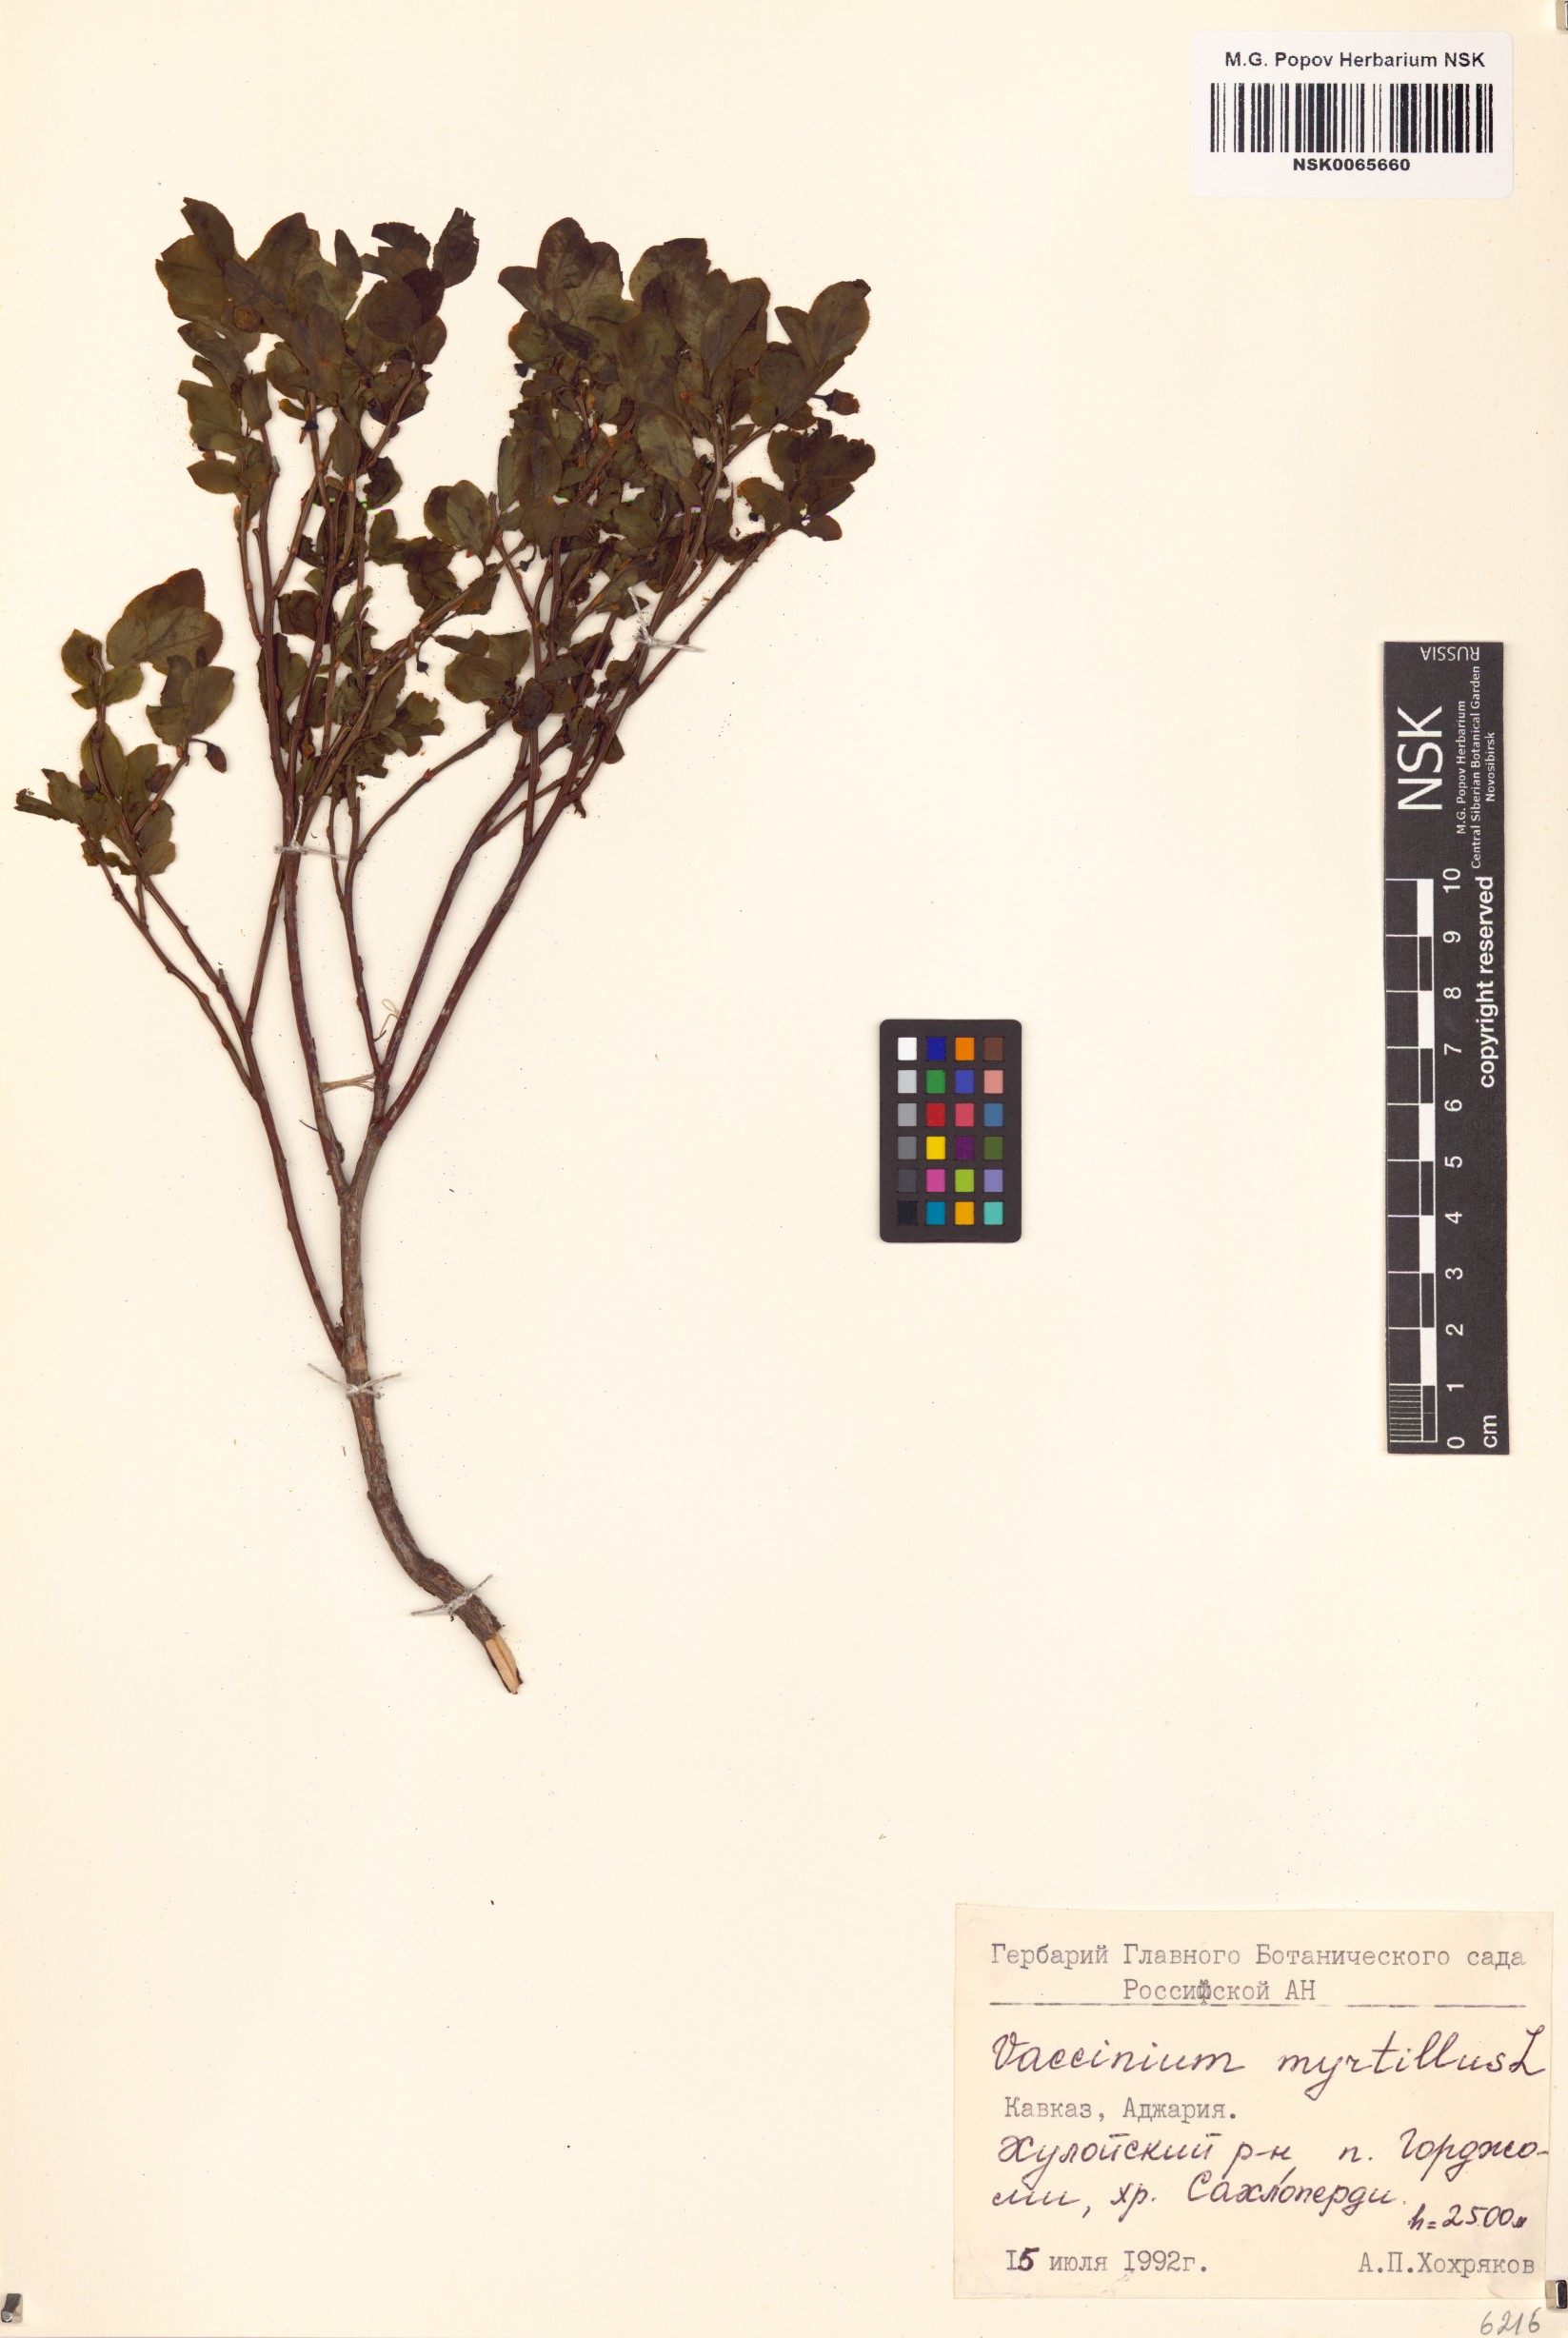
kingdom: Plantae
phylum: Tracheophyta
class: Magnoliopsida
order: Ericales
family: Ericaceae
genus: Vaccinium
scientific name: Vaccinium myrtillus
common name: Bilberry
